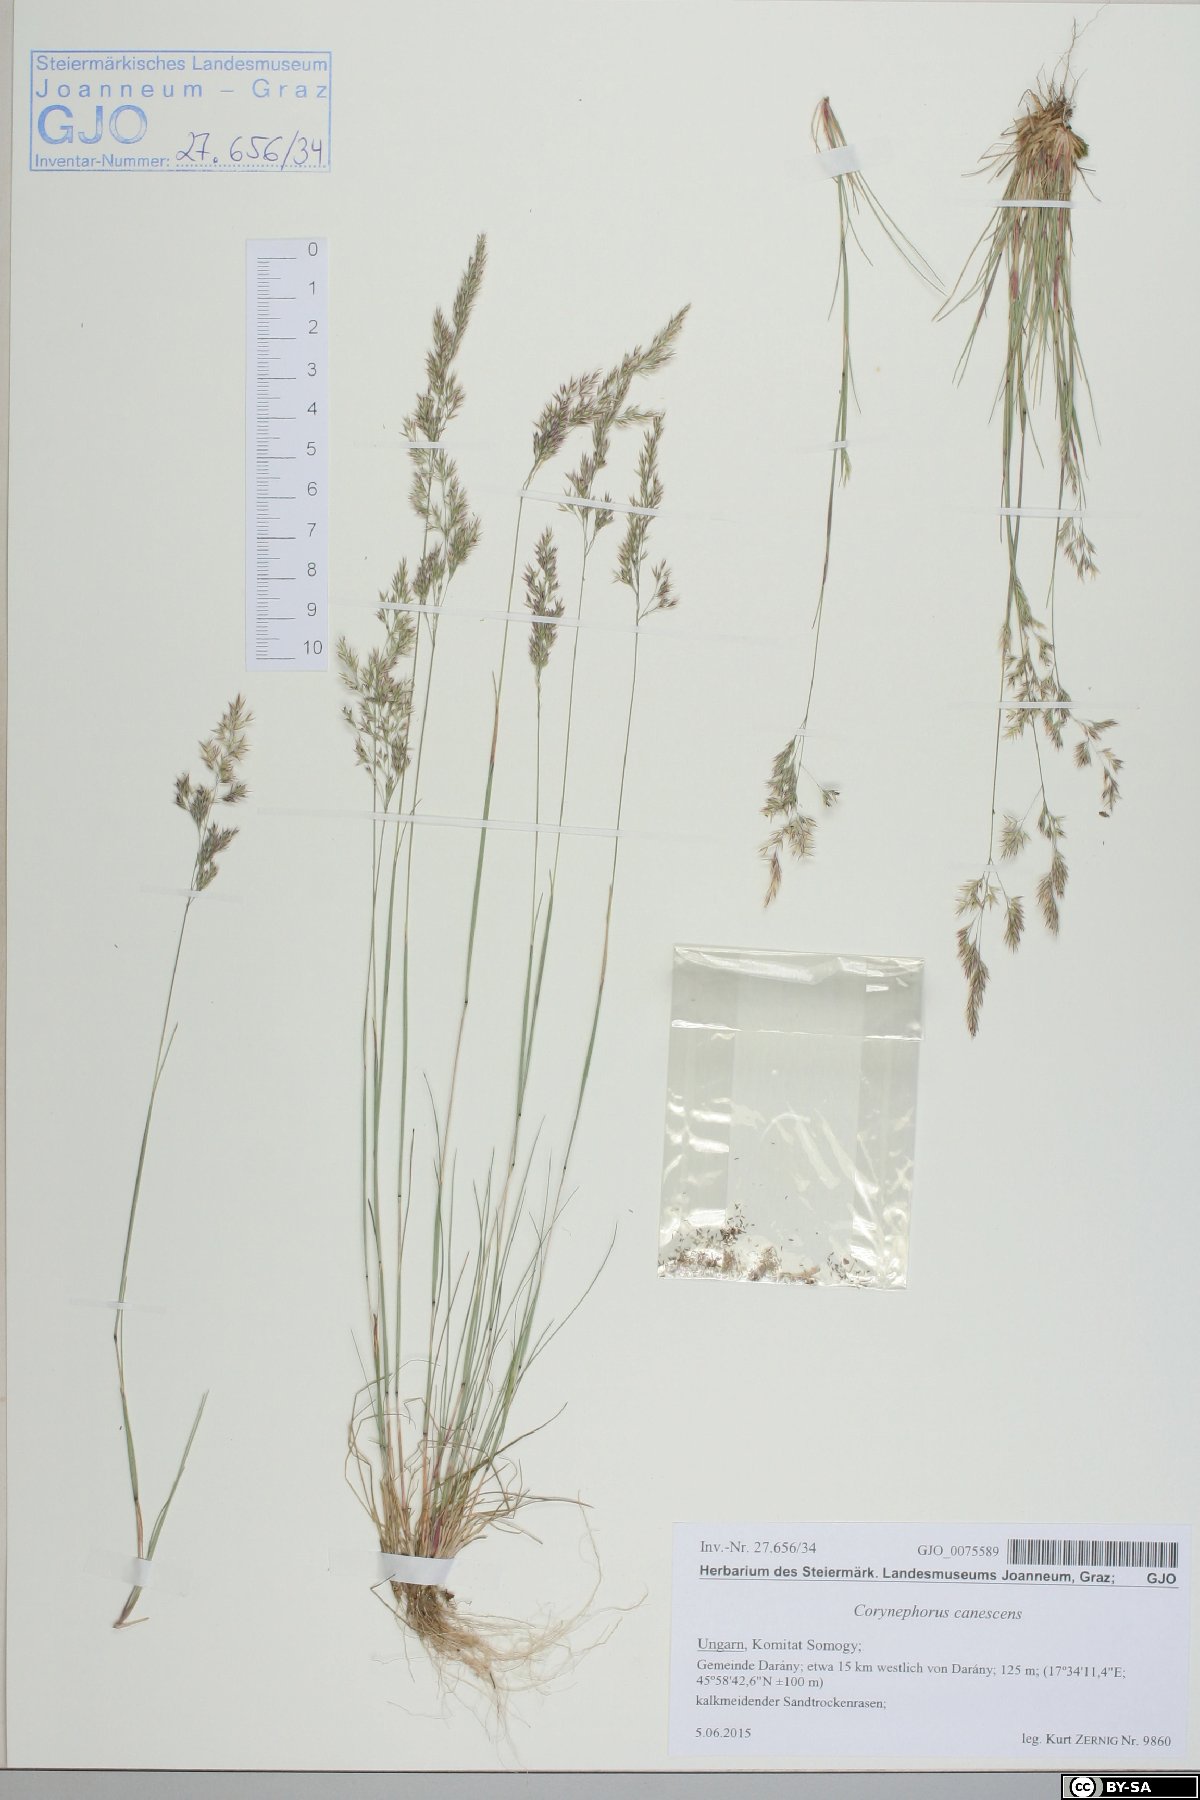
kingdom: Plantae
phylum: Tracheophyta
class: Liliopsida
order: Poales
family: Poaceae
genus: Corynephorus
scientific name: Corynephorus canescens
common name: Grey hair-grass
